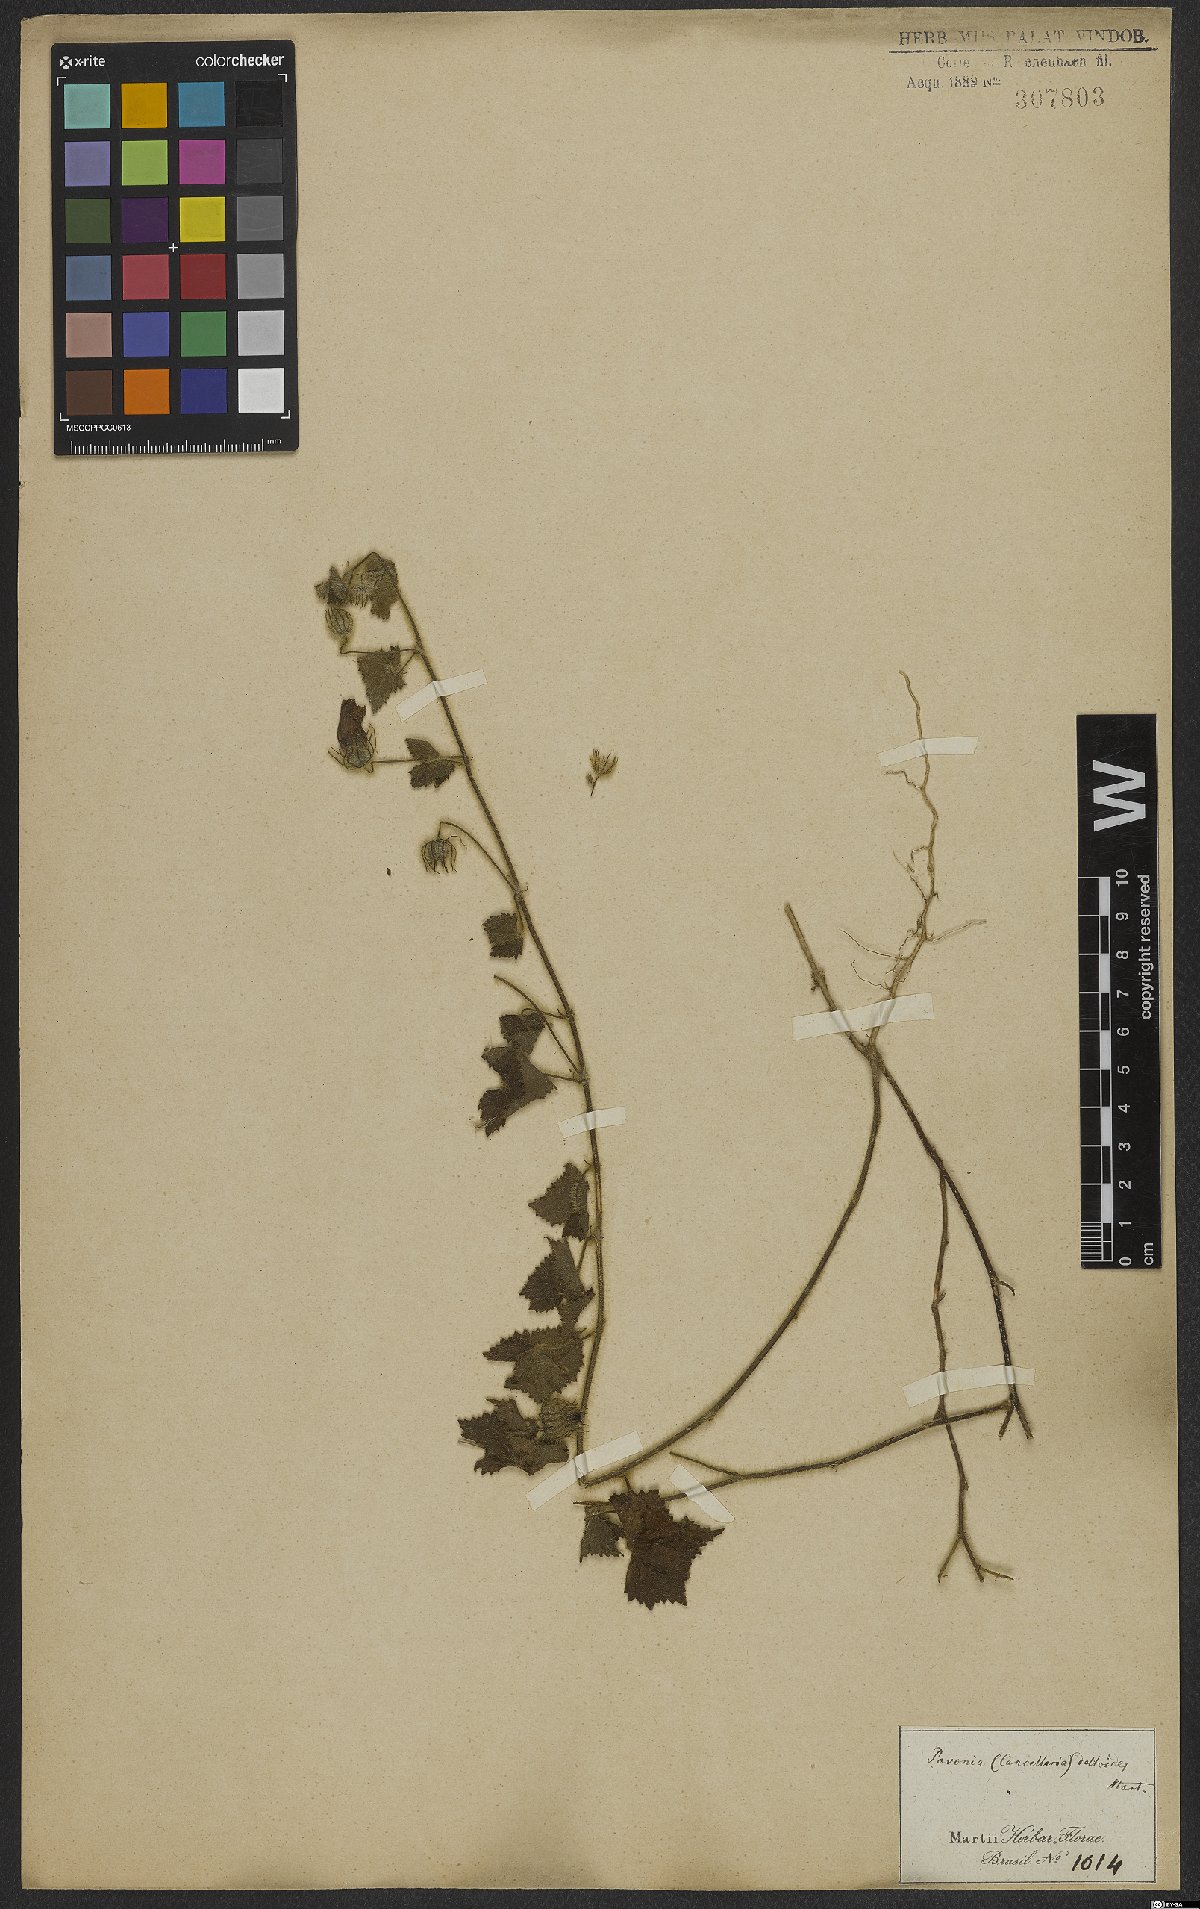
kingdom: Plantae
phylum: Tracheophyta
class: Magnoliopsida
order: Malvales
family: Malvaceae
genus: Pavonia
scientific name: Pavonia cancellata
